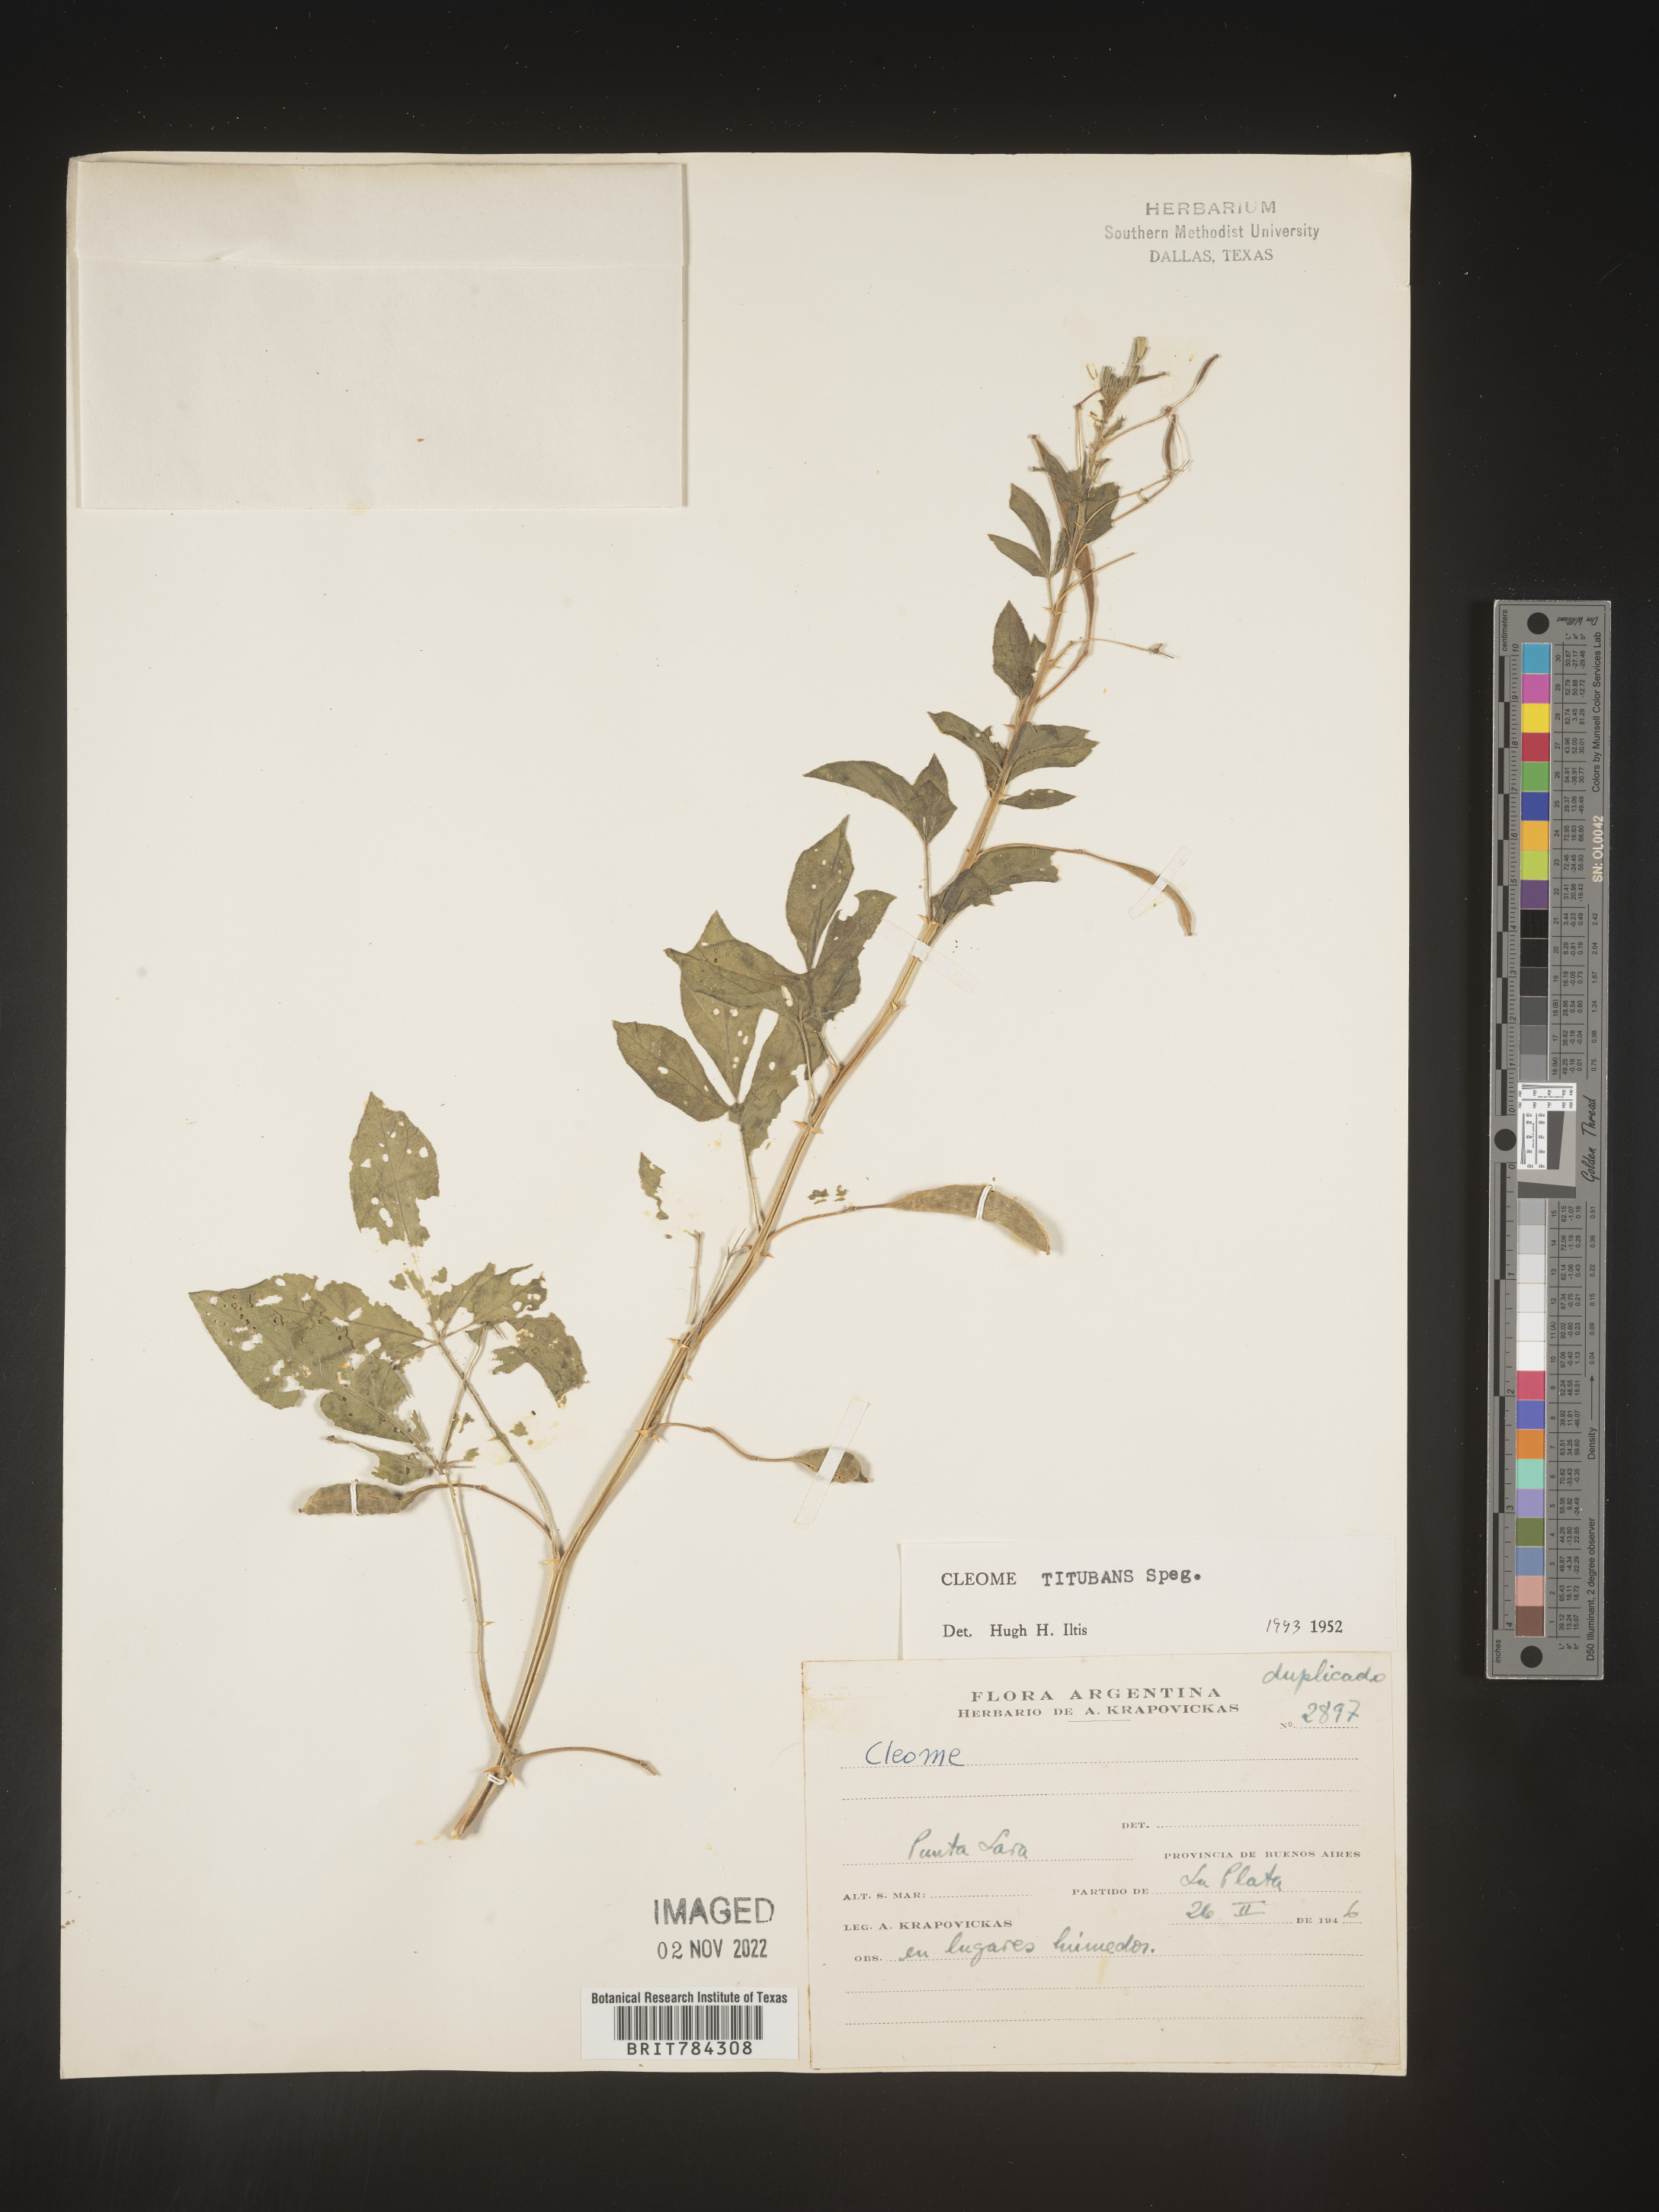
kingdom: Plantae
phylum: Tracheophyta
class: Magnoliopsida
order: Brassicales
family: Cleomaceae
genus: Cleome
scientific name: Cleome
